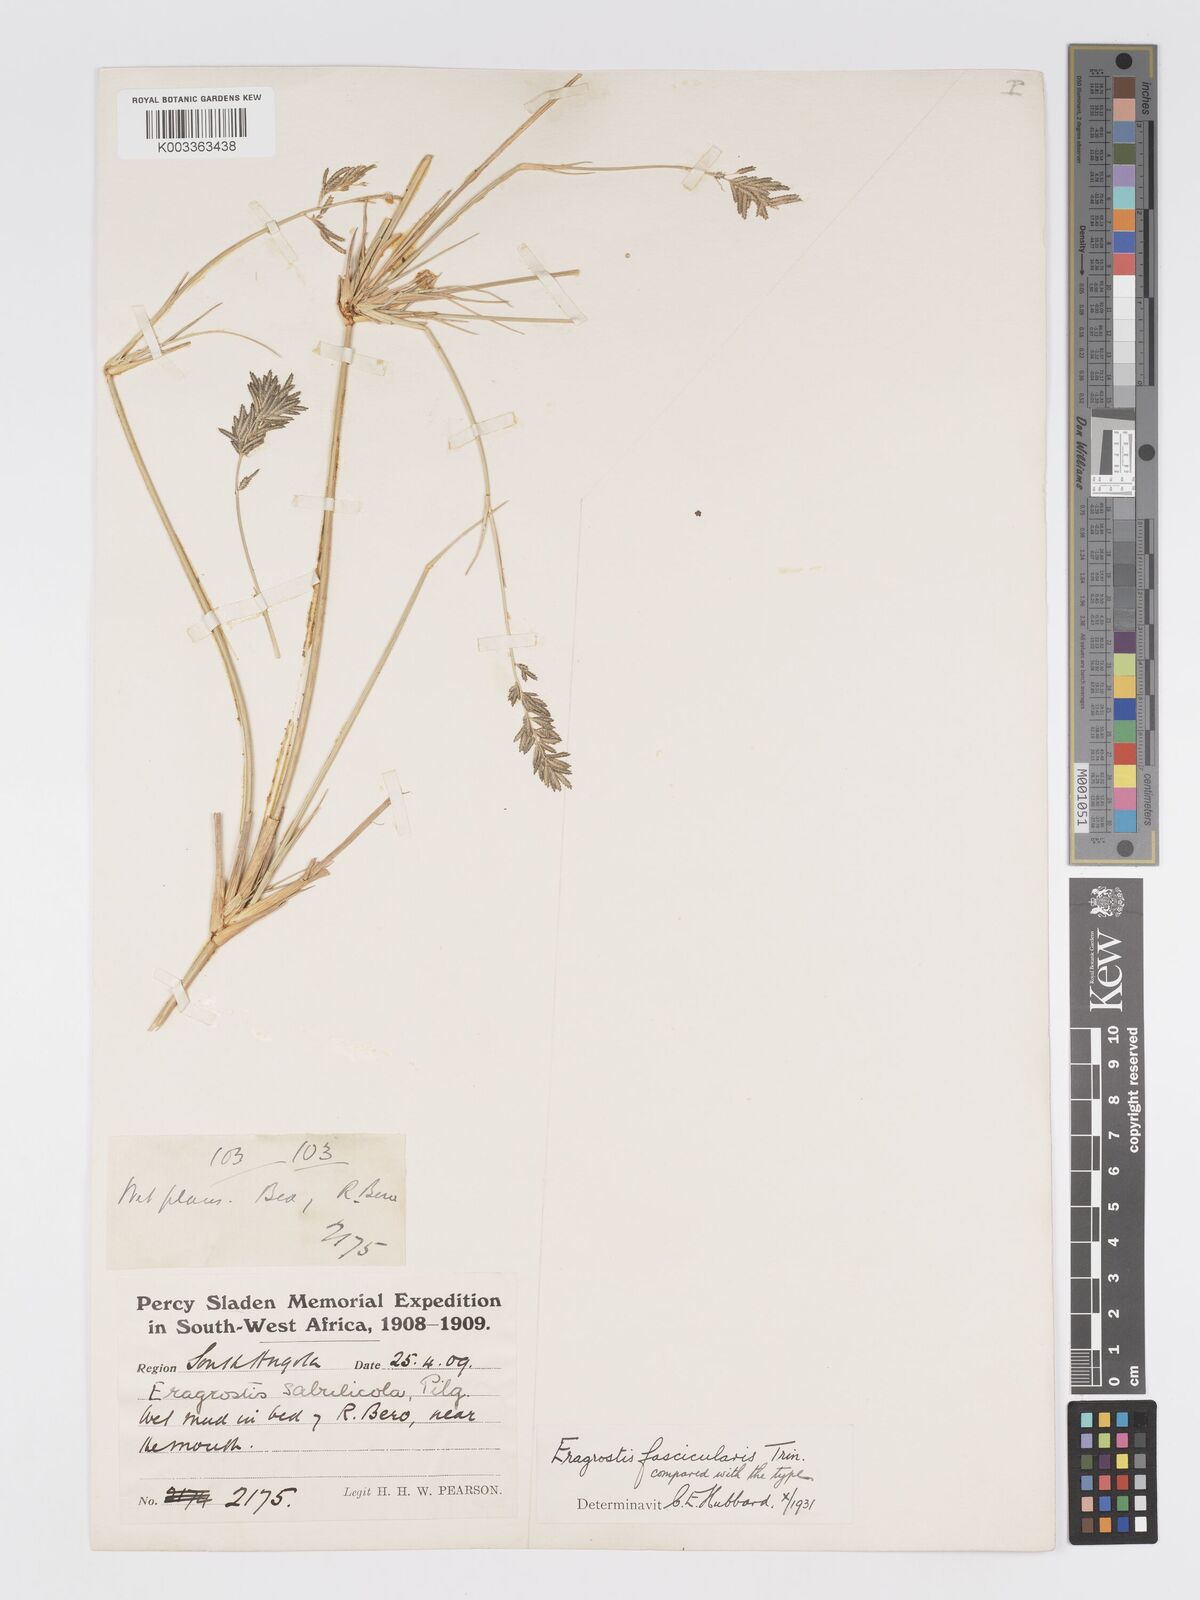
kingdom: Plantae
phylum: Tracheophyta
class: Liliopsida
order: Poales
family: Poaceae
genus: Eragrostis
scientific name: Eragrostis prolifera
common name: Dominican lovegrass
